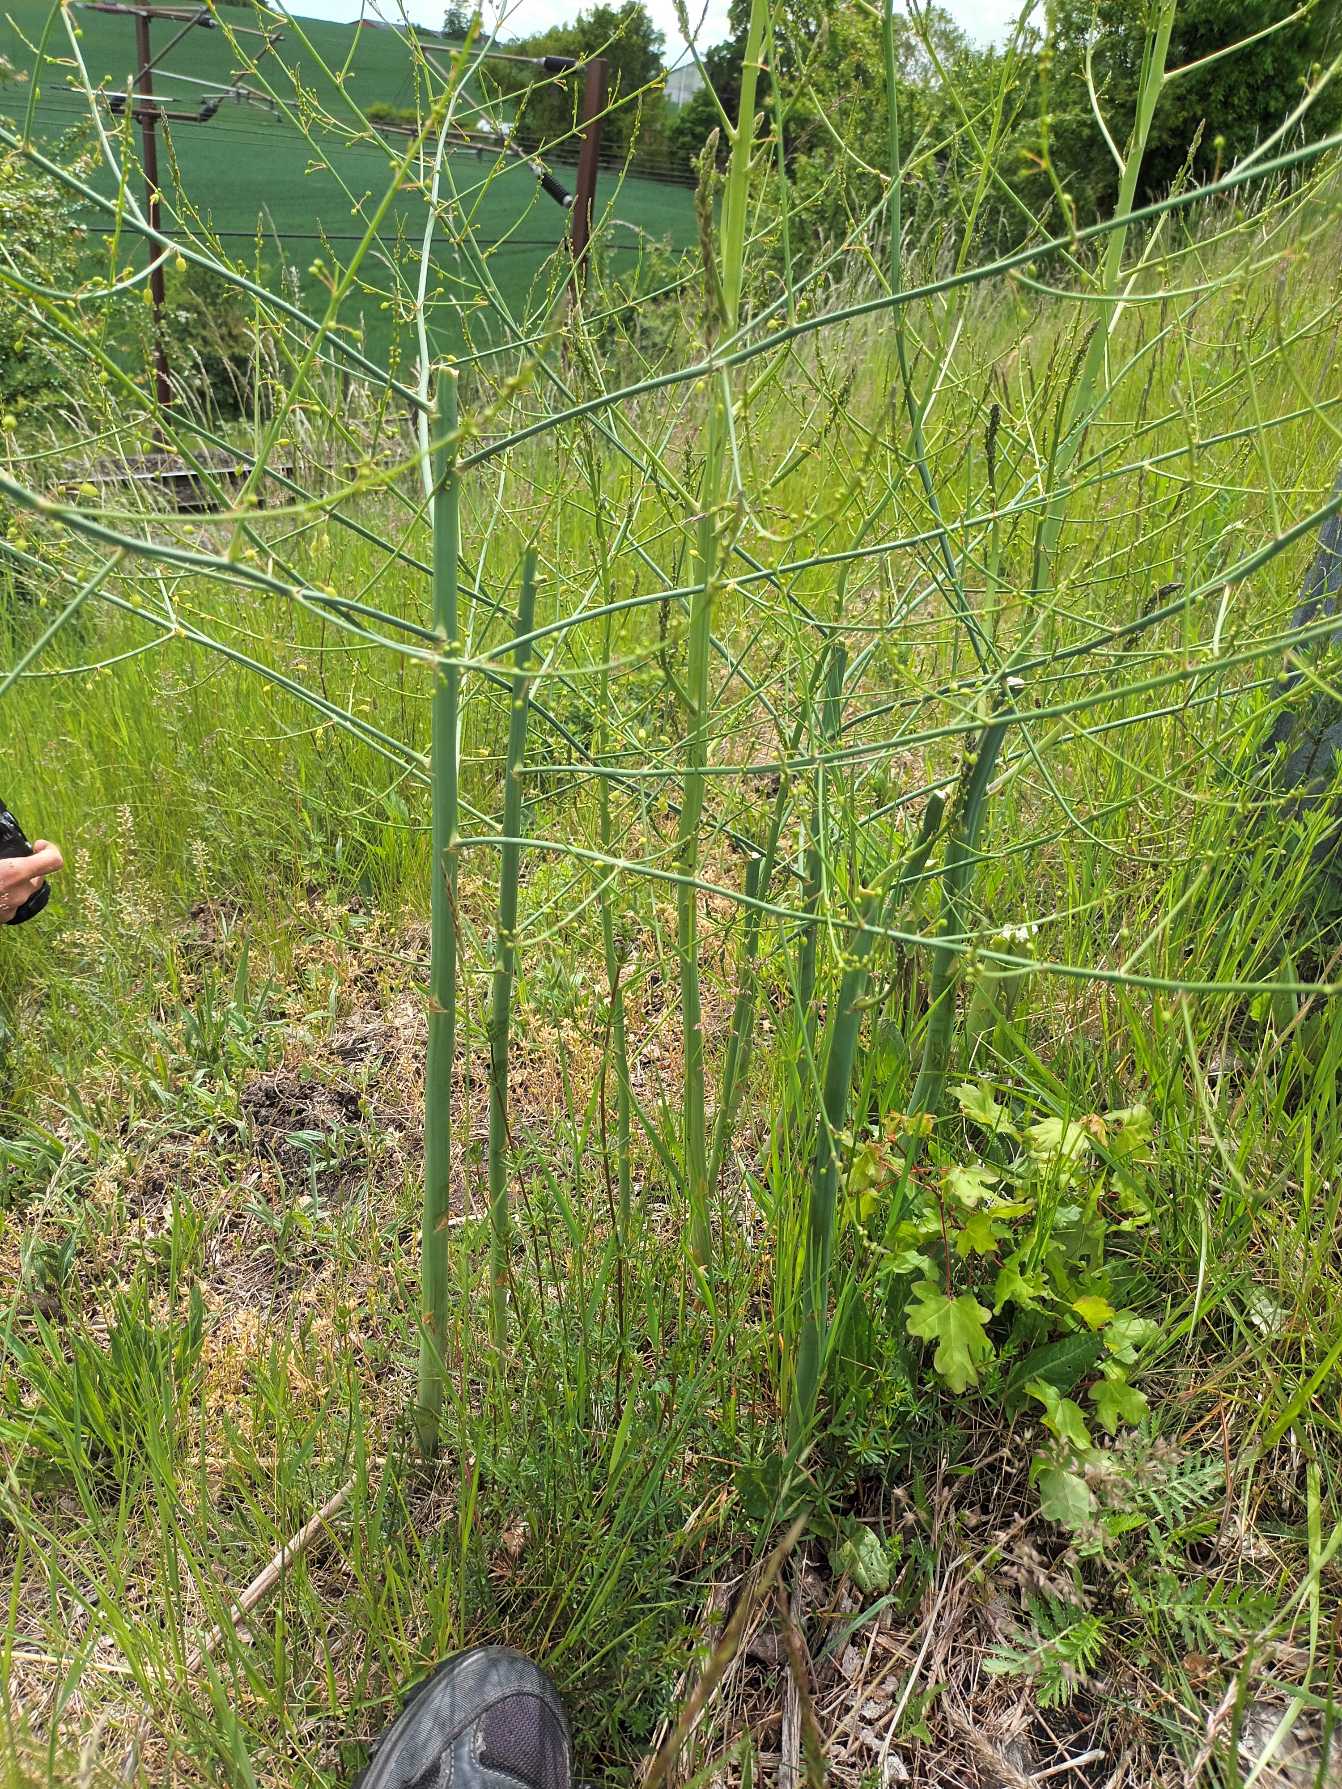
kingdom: Plantae
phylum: Tracheophyta
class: Liliopsida
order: Asparagales
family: Asparagaceae
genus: Asparagus
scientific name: Asparagus officinalis
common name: Asparges
